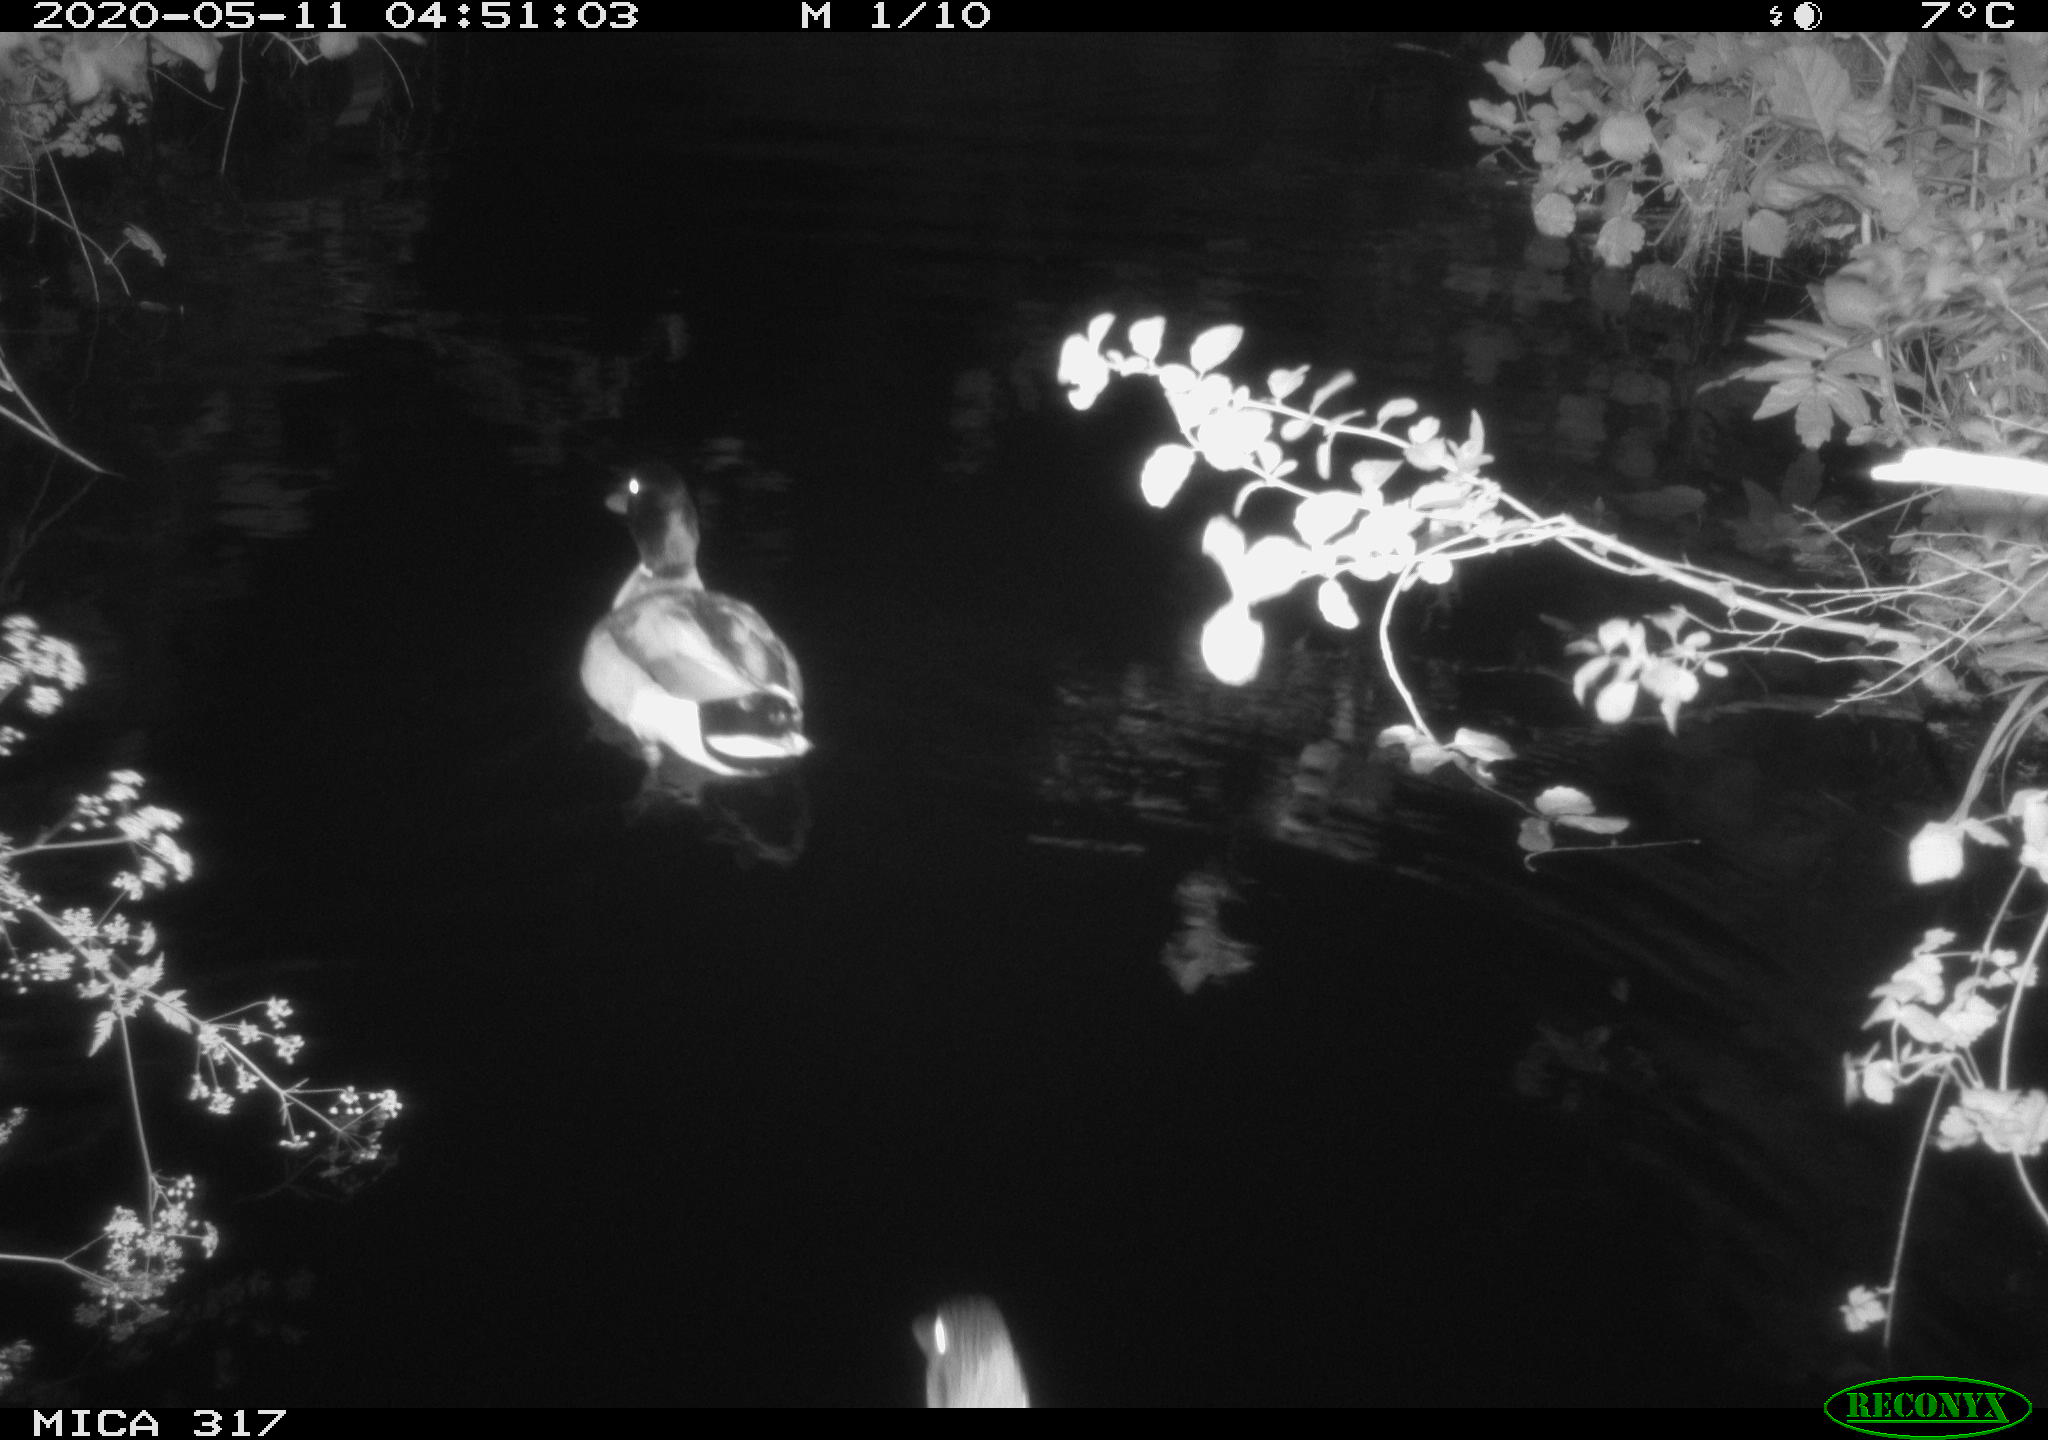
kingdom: Animalia
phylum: Chordata
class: Aves
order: Anseriformes
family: Anatidae
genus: Anas
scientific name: Anas platyrhynchos
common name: Mallard
